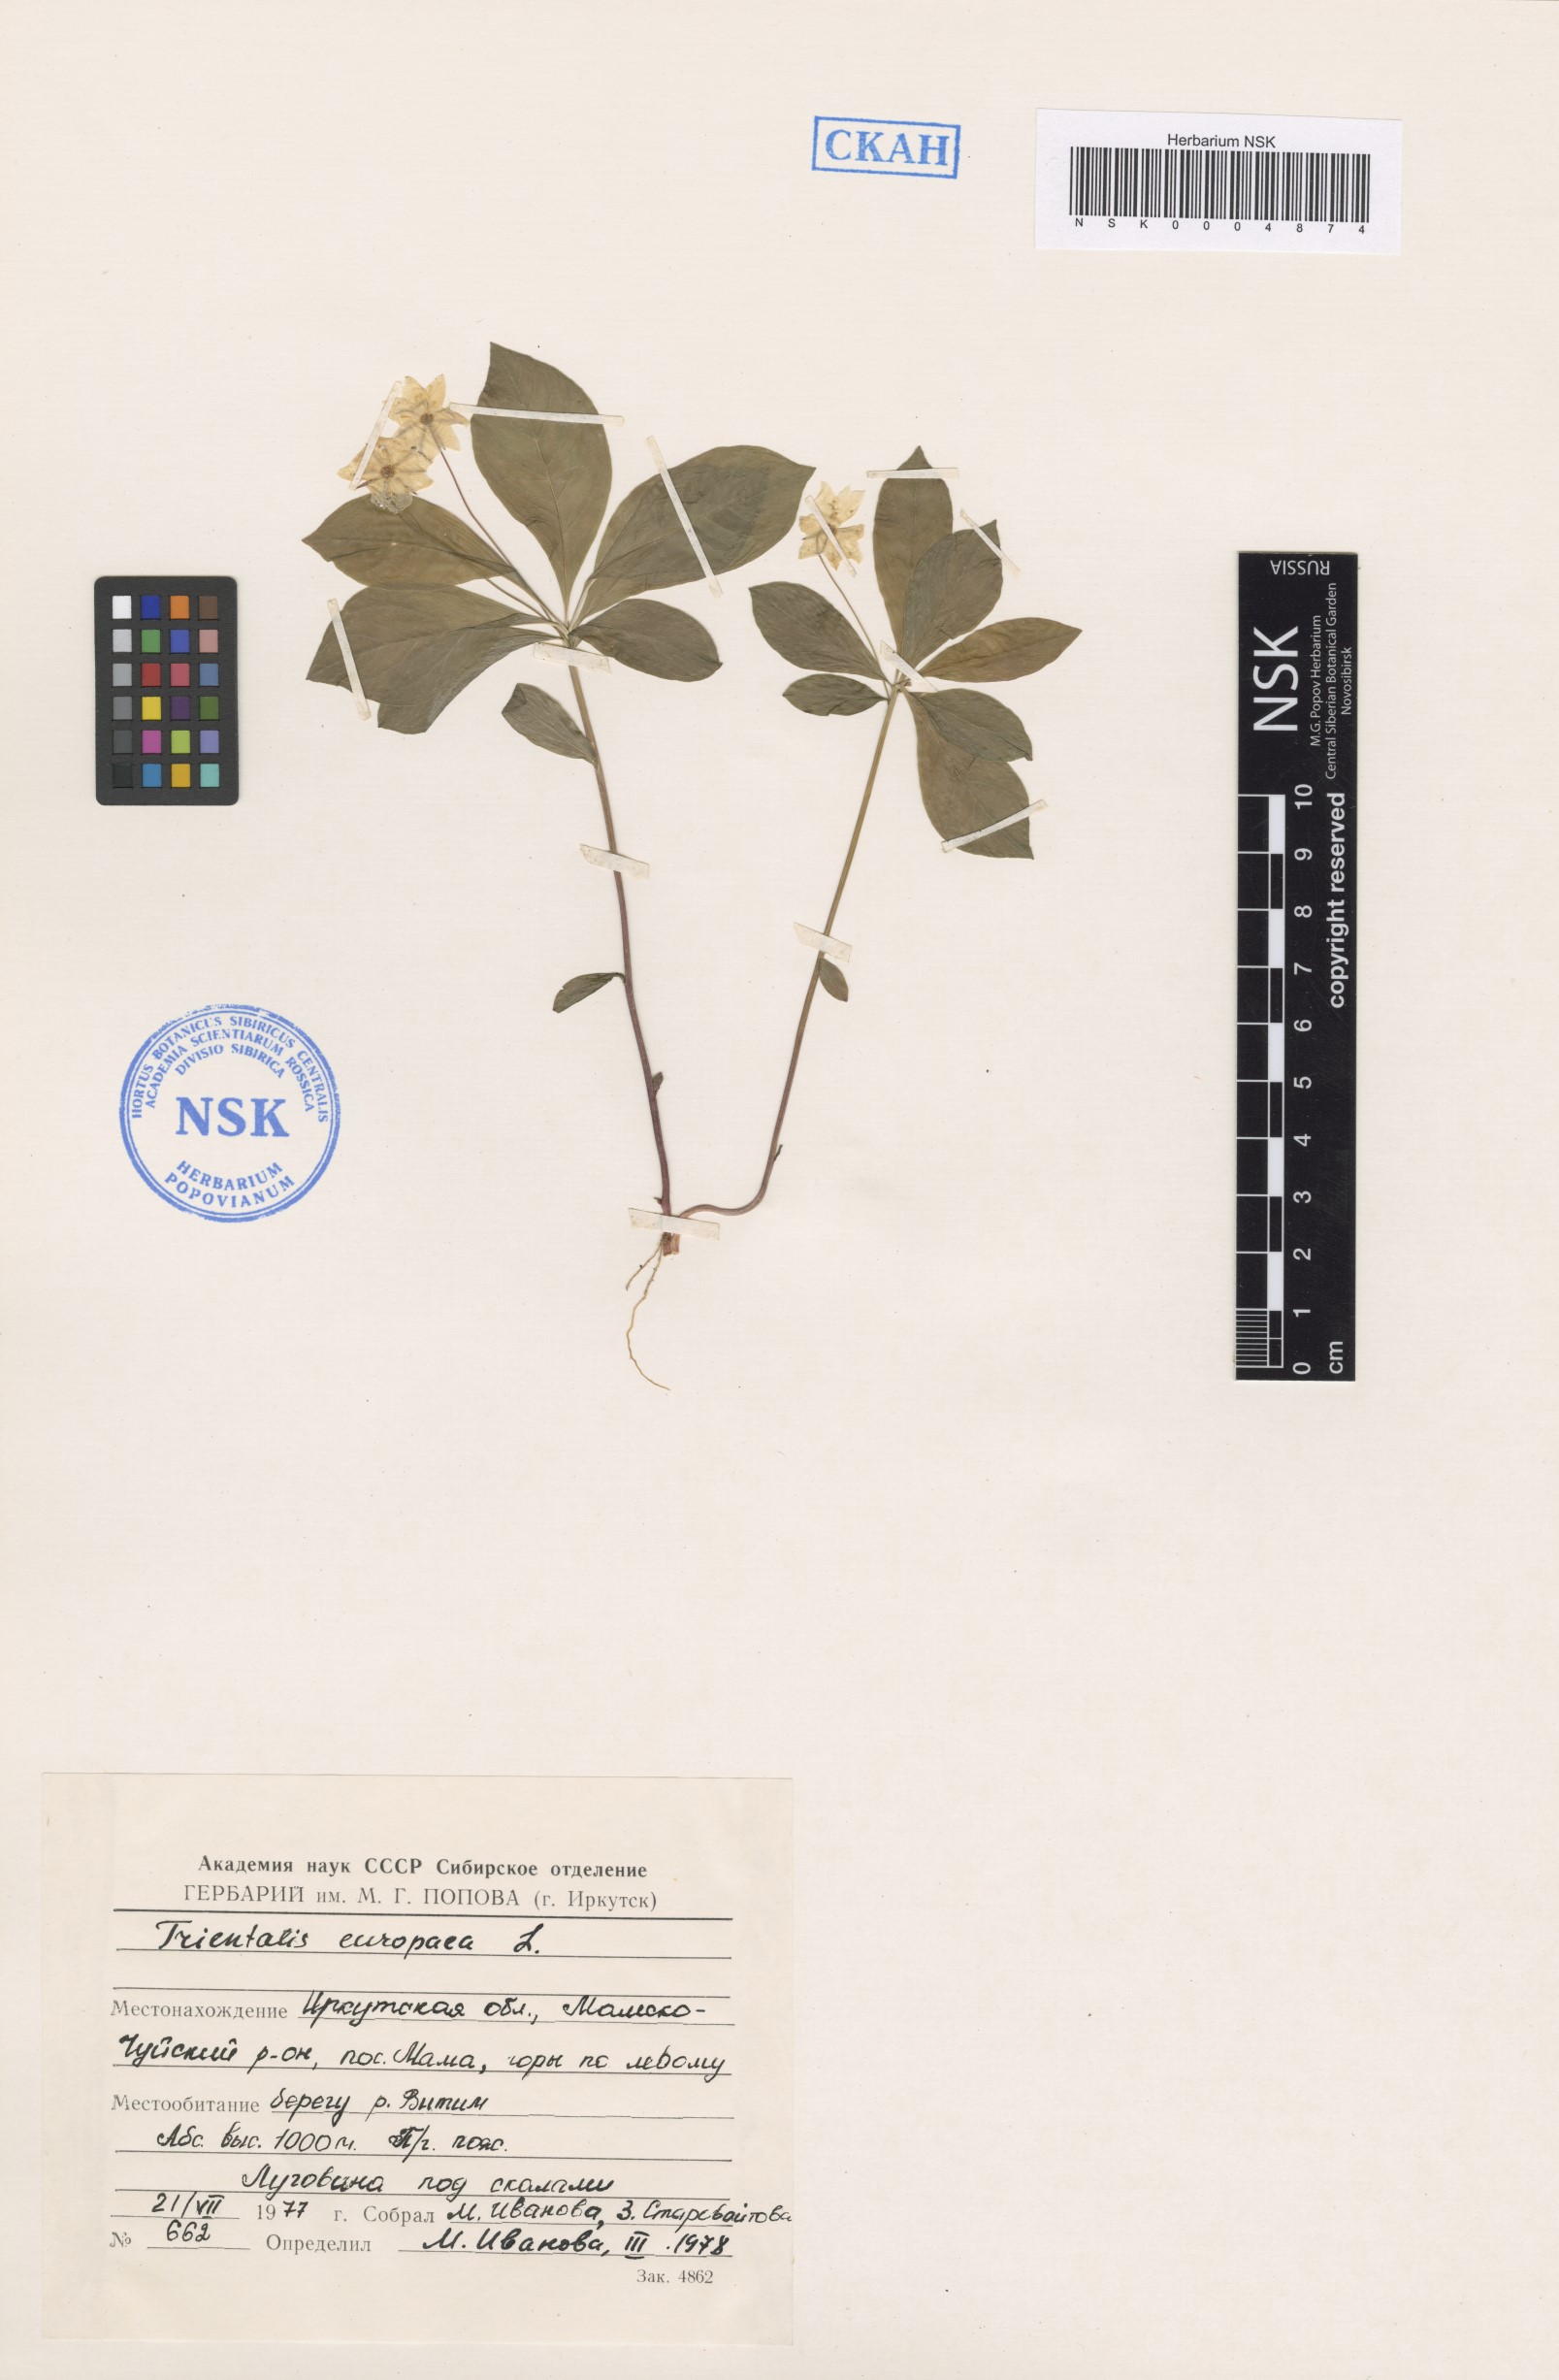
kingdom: Plantae
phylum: Tracheophyta
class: Magnoliopsida
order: Ericales
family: Primulaceae
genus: Lysimachia
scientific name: Lysimachia europaea
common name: Arctic starflower
